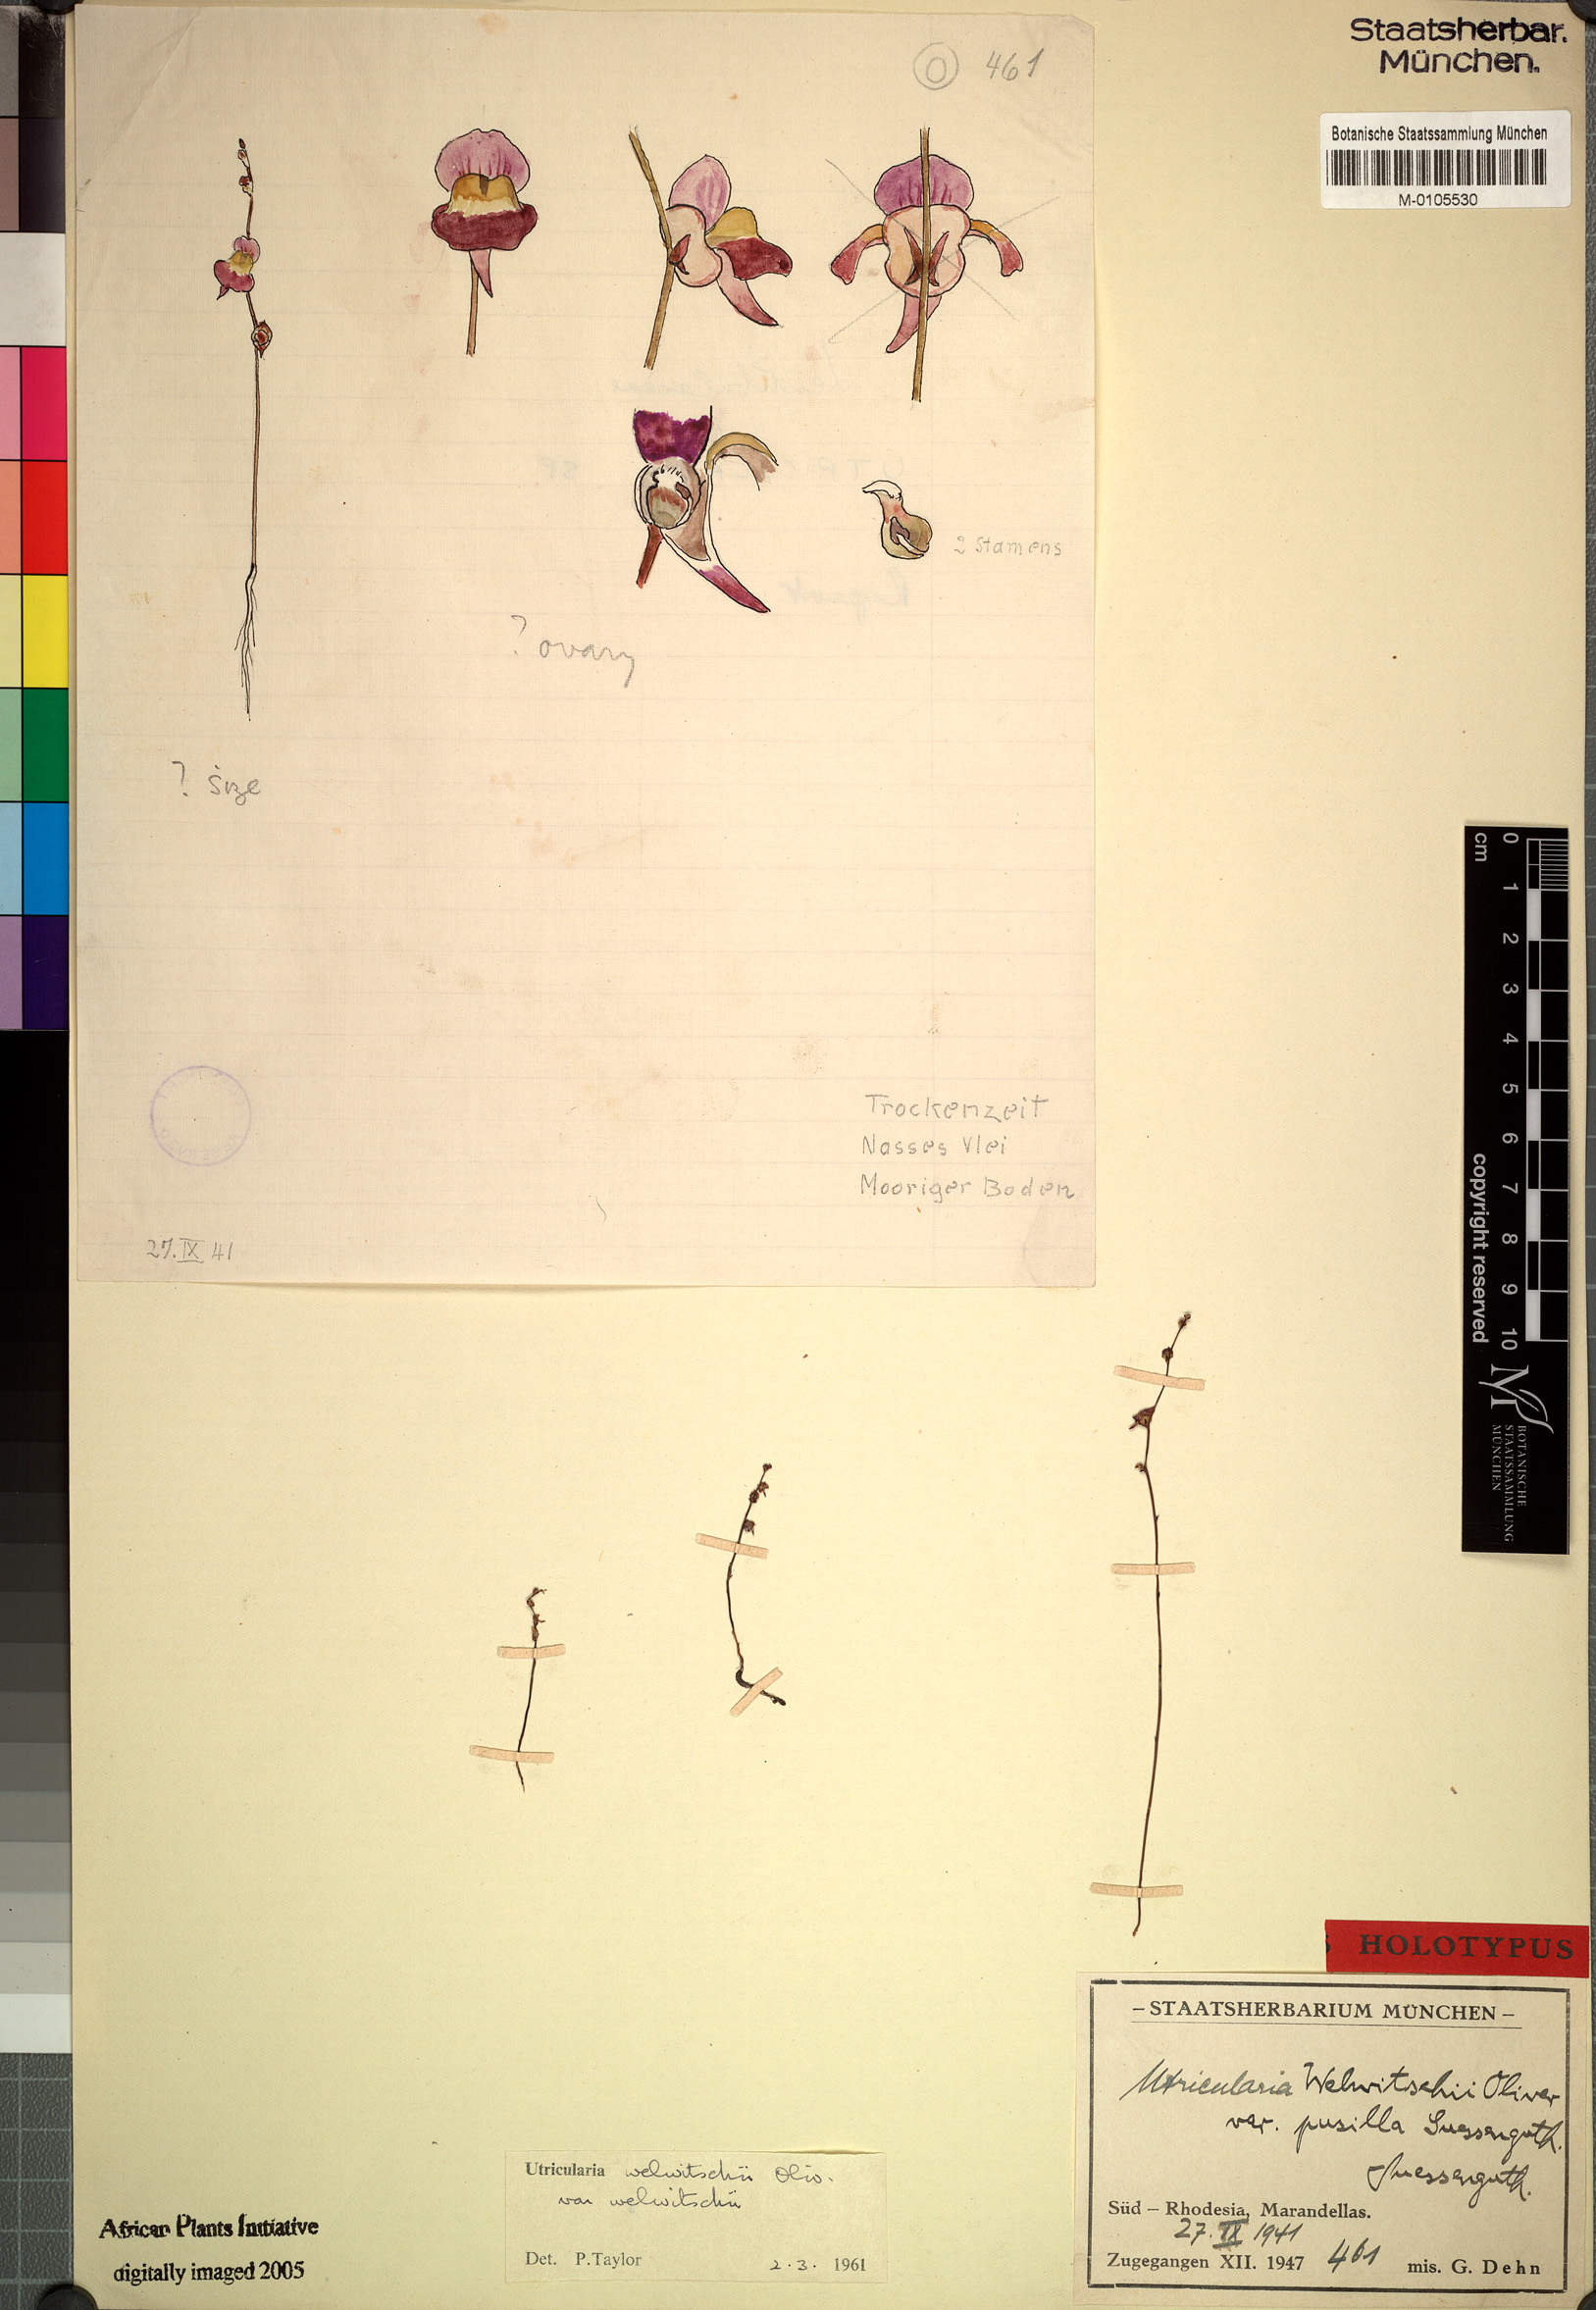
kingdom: Plantae
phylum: Tracheophyta
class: Magnoliopsida
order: Lamiales
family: Lentibulariaceae
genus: Utricularia
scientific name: Utricularia welwitschii
